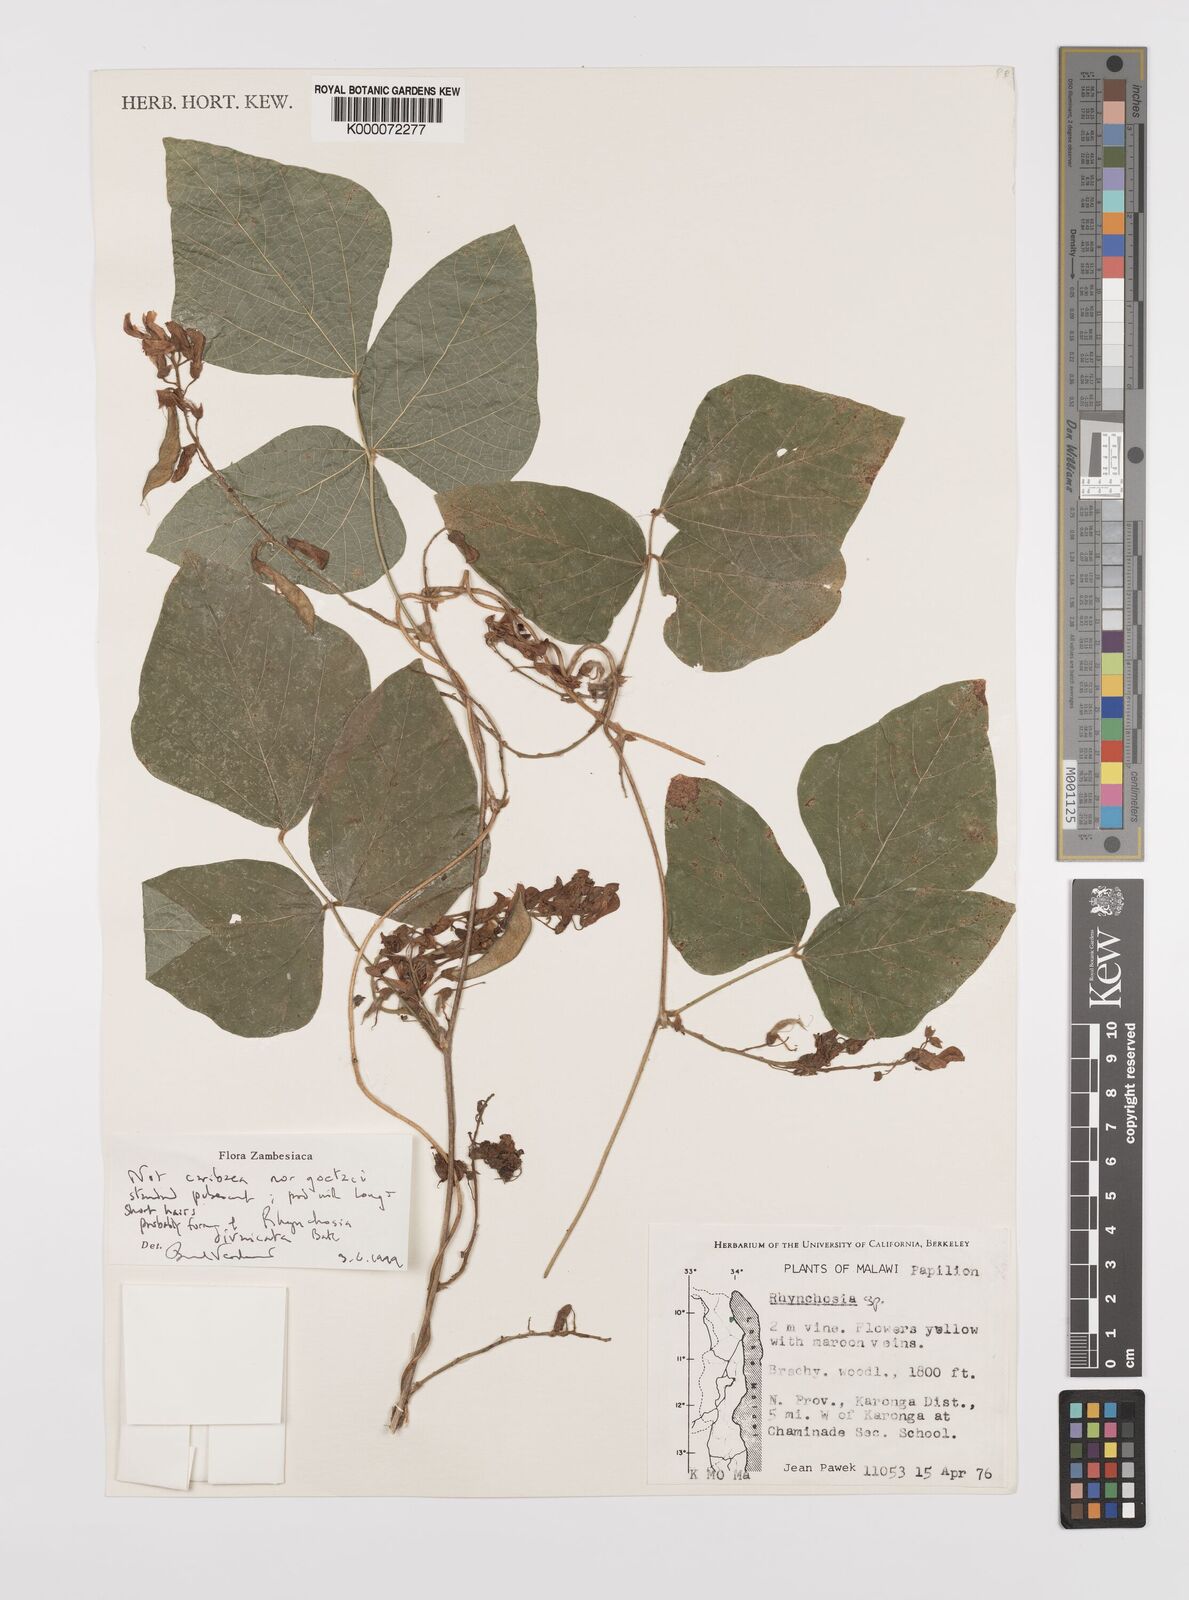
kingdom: Plantae
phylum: Tracheophyta
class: Magnoliopsida
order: Fabales
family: Fabaceae
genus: Rhynchosia
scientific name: Rhynchosia divaricata
